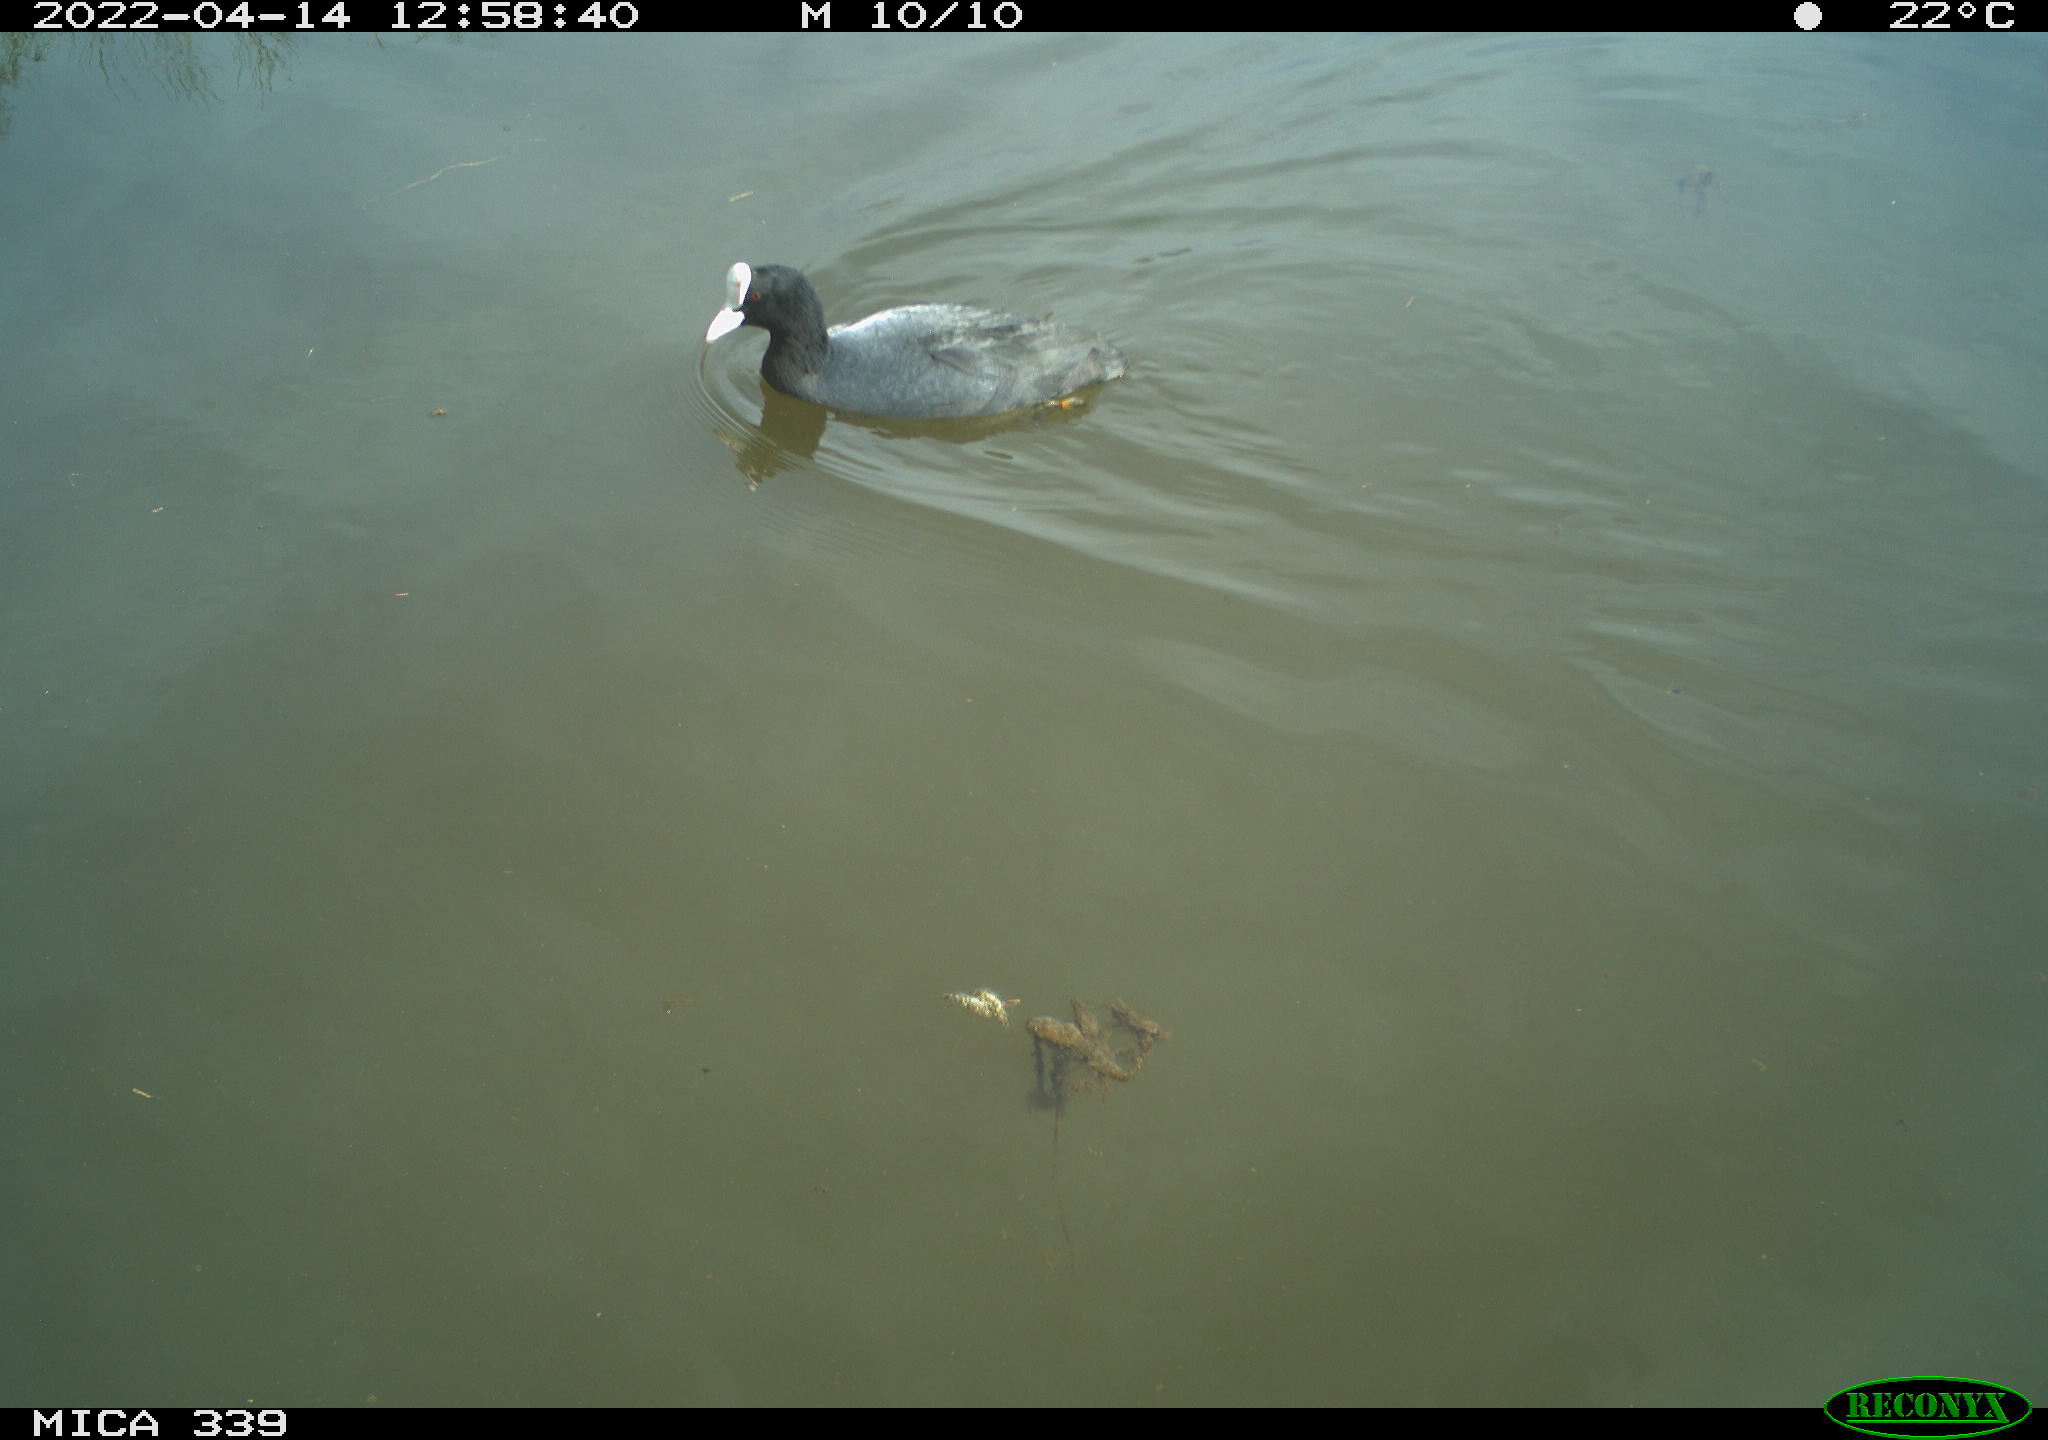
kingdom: Animalia
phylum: Chordata
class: Aves
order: Gruiformes
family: Rallidae
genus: Fulica
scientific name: Fulica atra
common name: Eurasian coot
